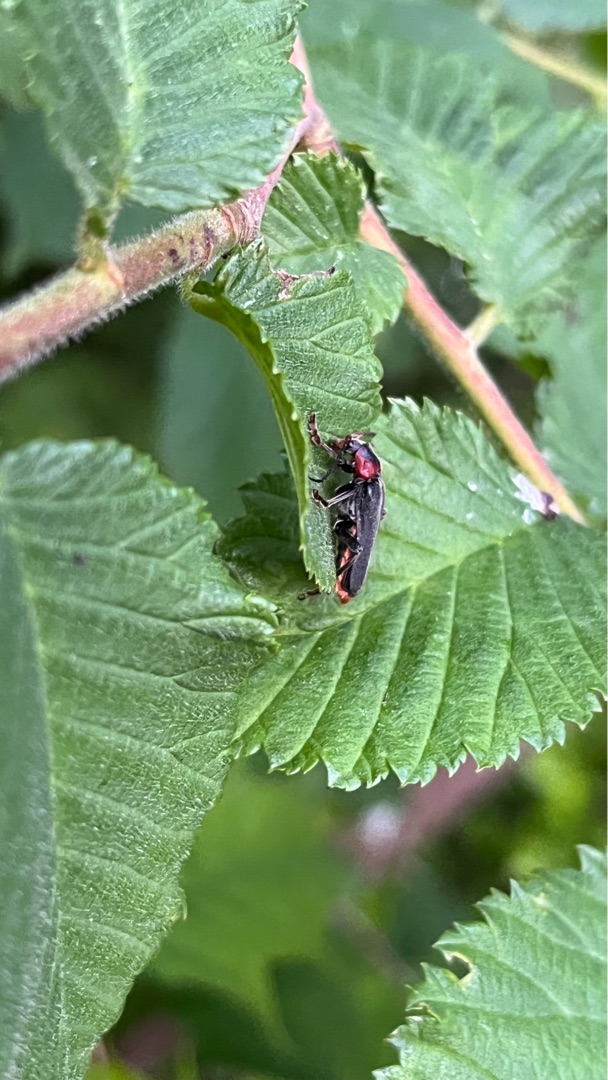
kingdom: Animalia
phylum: Arthropoda
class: Insecta
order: Coleoptera
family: Cantharidae
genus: Cantharis
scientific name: Cantharis fusca
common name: Stor blødvinge
